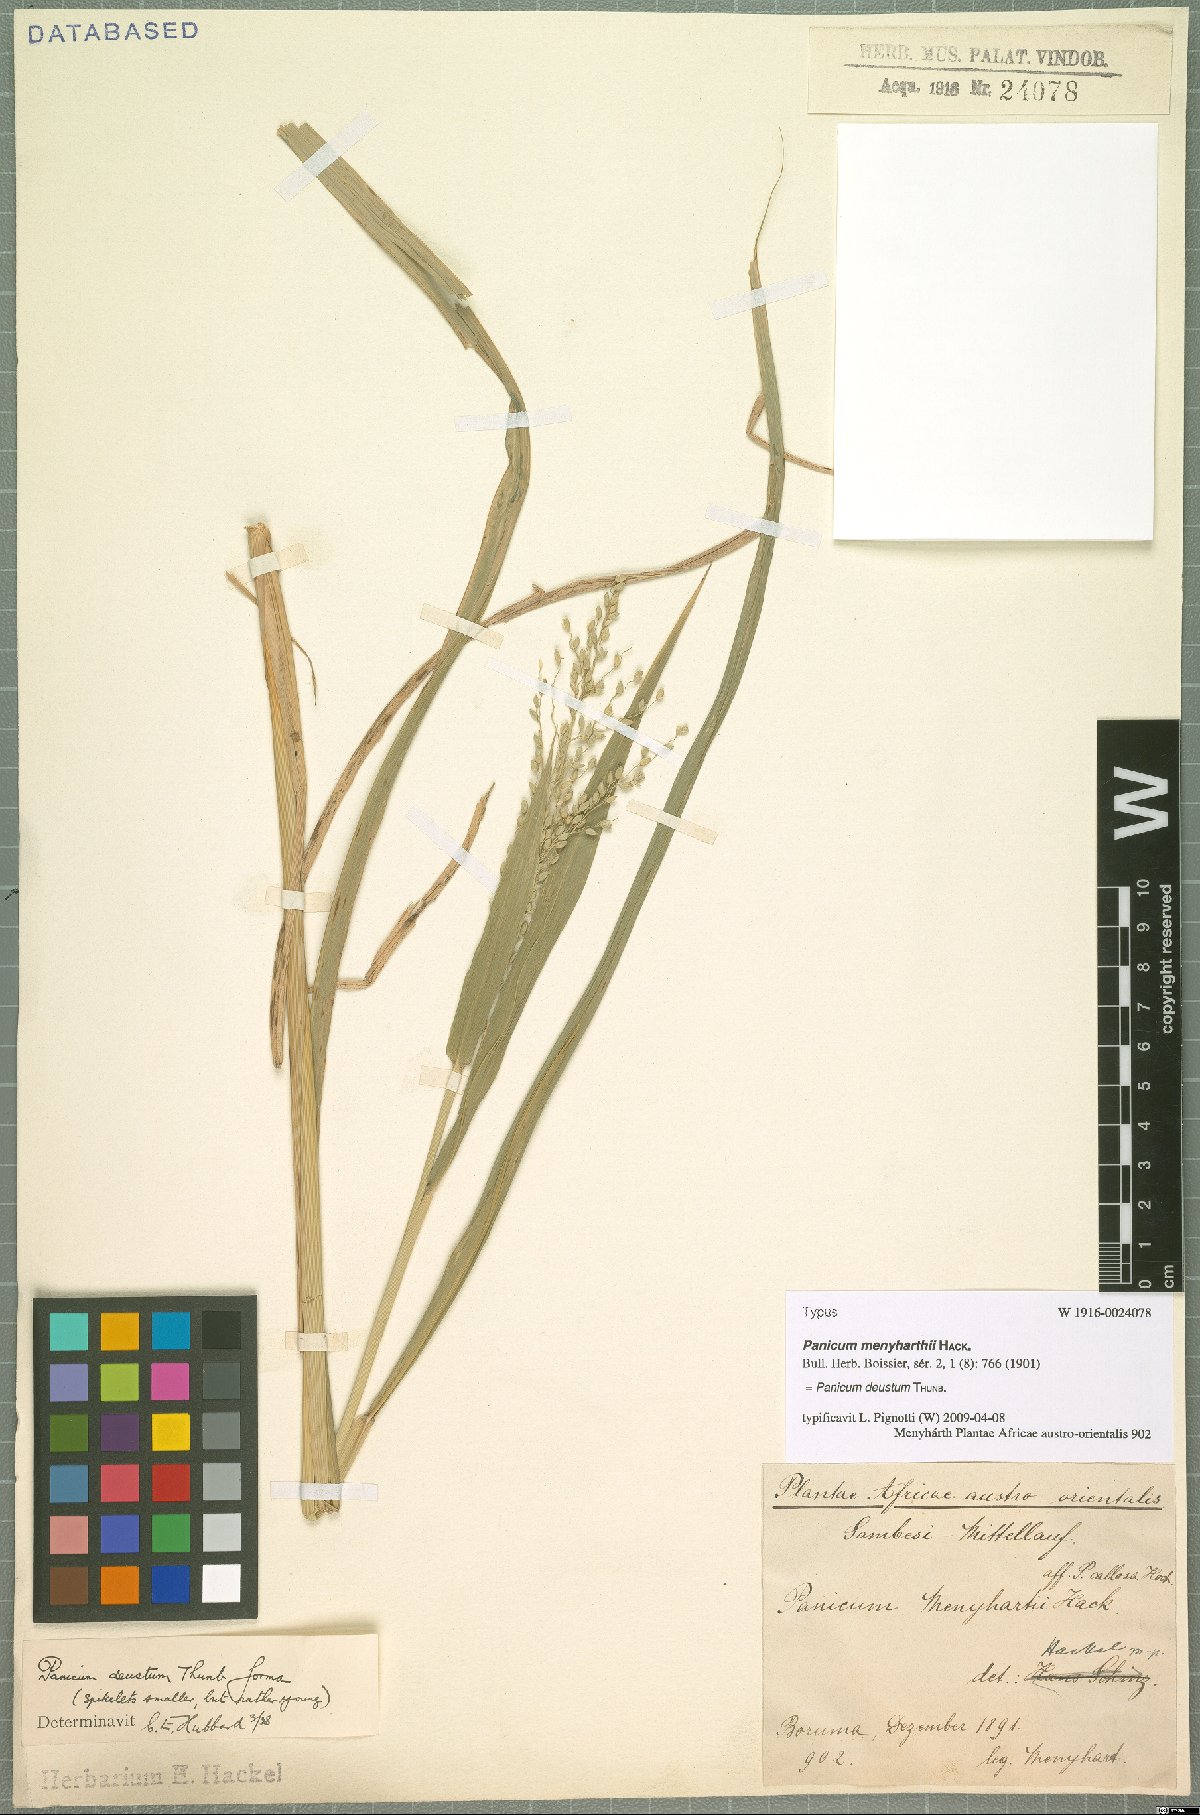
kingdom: Plantae
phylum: Tracheophyta
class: Liliopsida
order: Poales
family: Poaceae
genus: Panicum
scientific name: Panicum deustum
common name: Reed panicum
